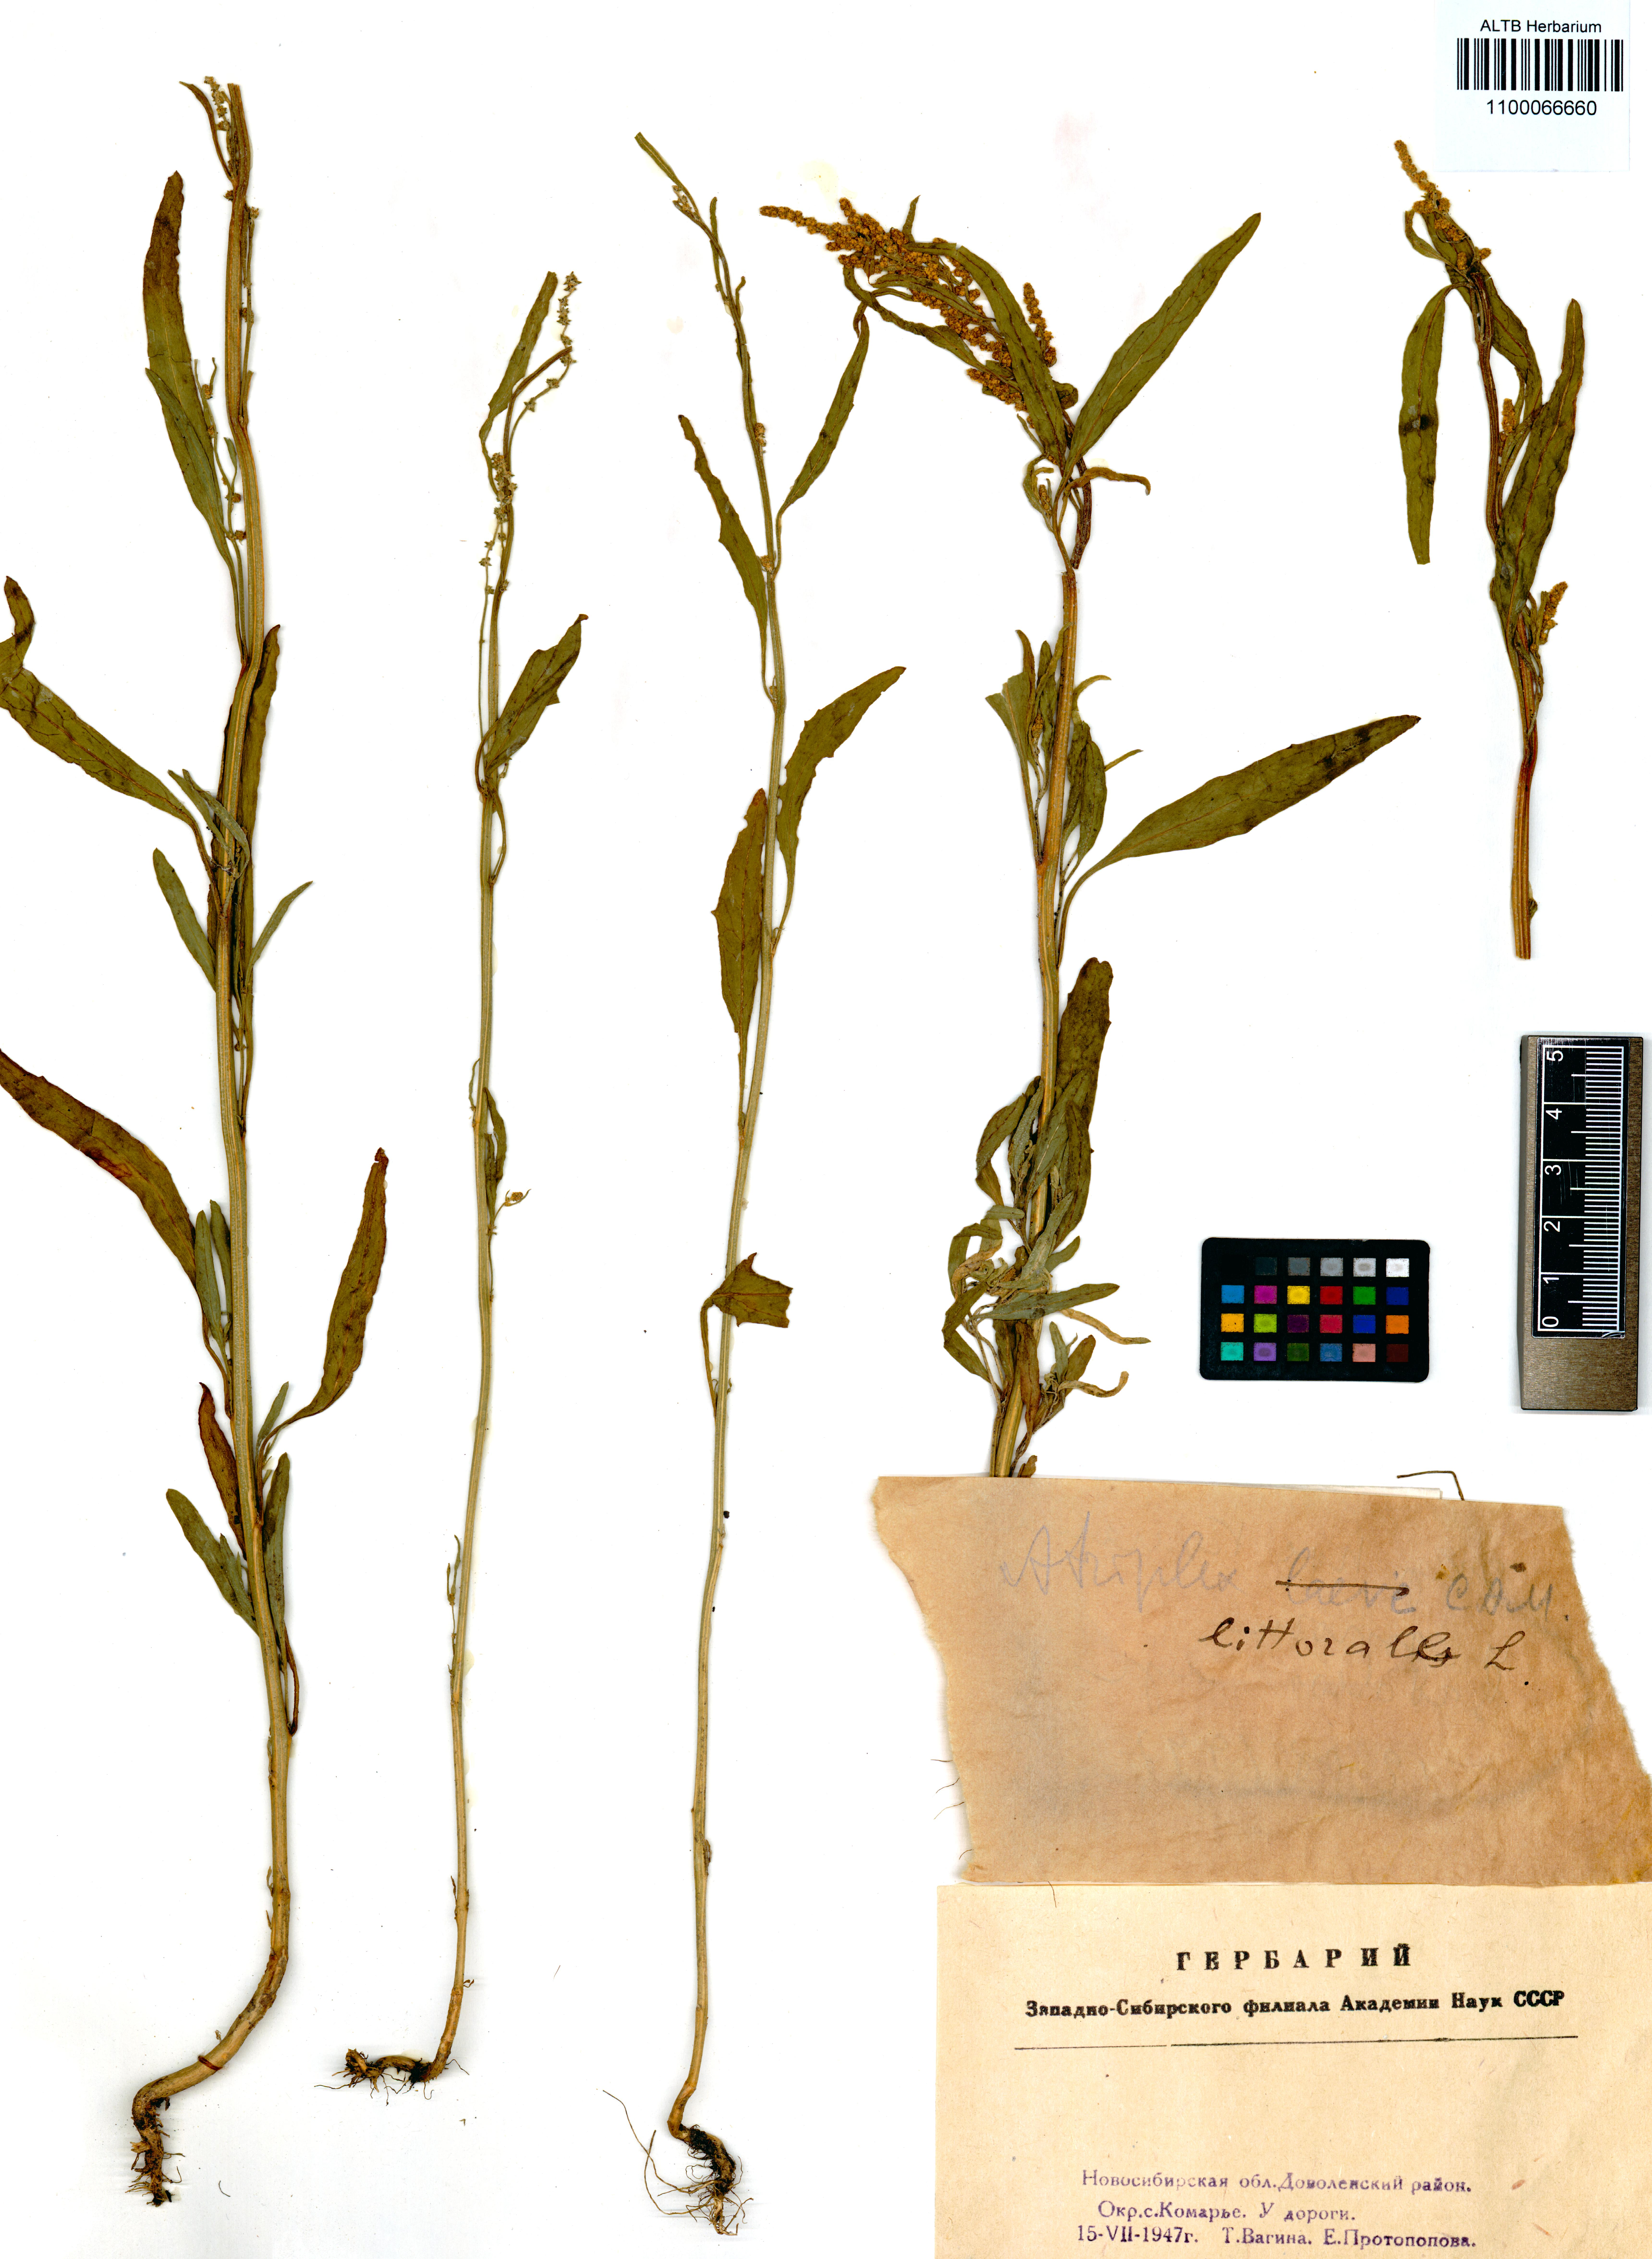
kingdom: Plantae
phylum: Tracheophyta
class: Magnoliopsida
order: Caryophyllales
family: Amaranthaceae
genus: Atriplex
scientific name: Atriplex littoralis
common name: Grass-leaved orache
